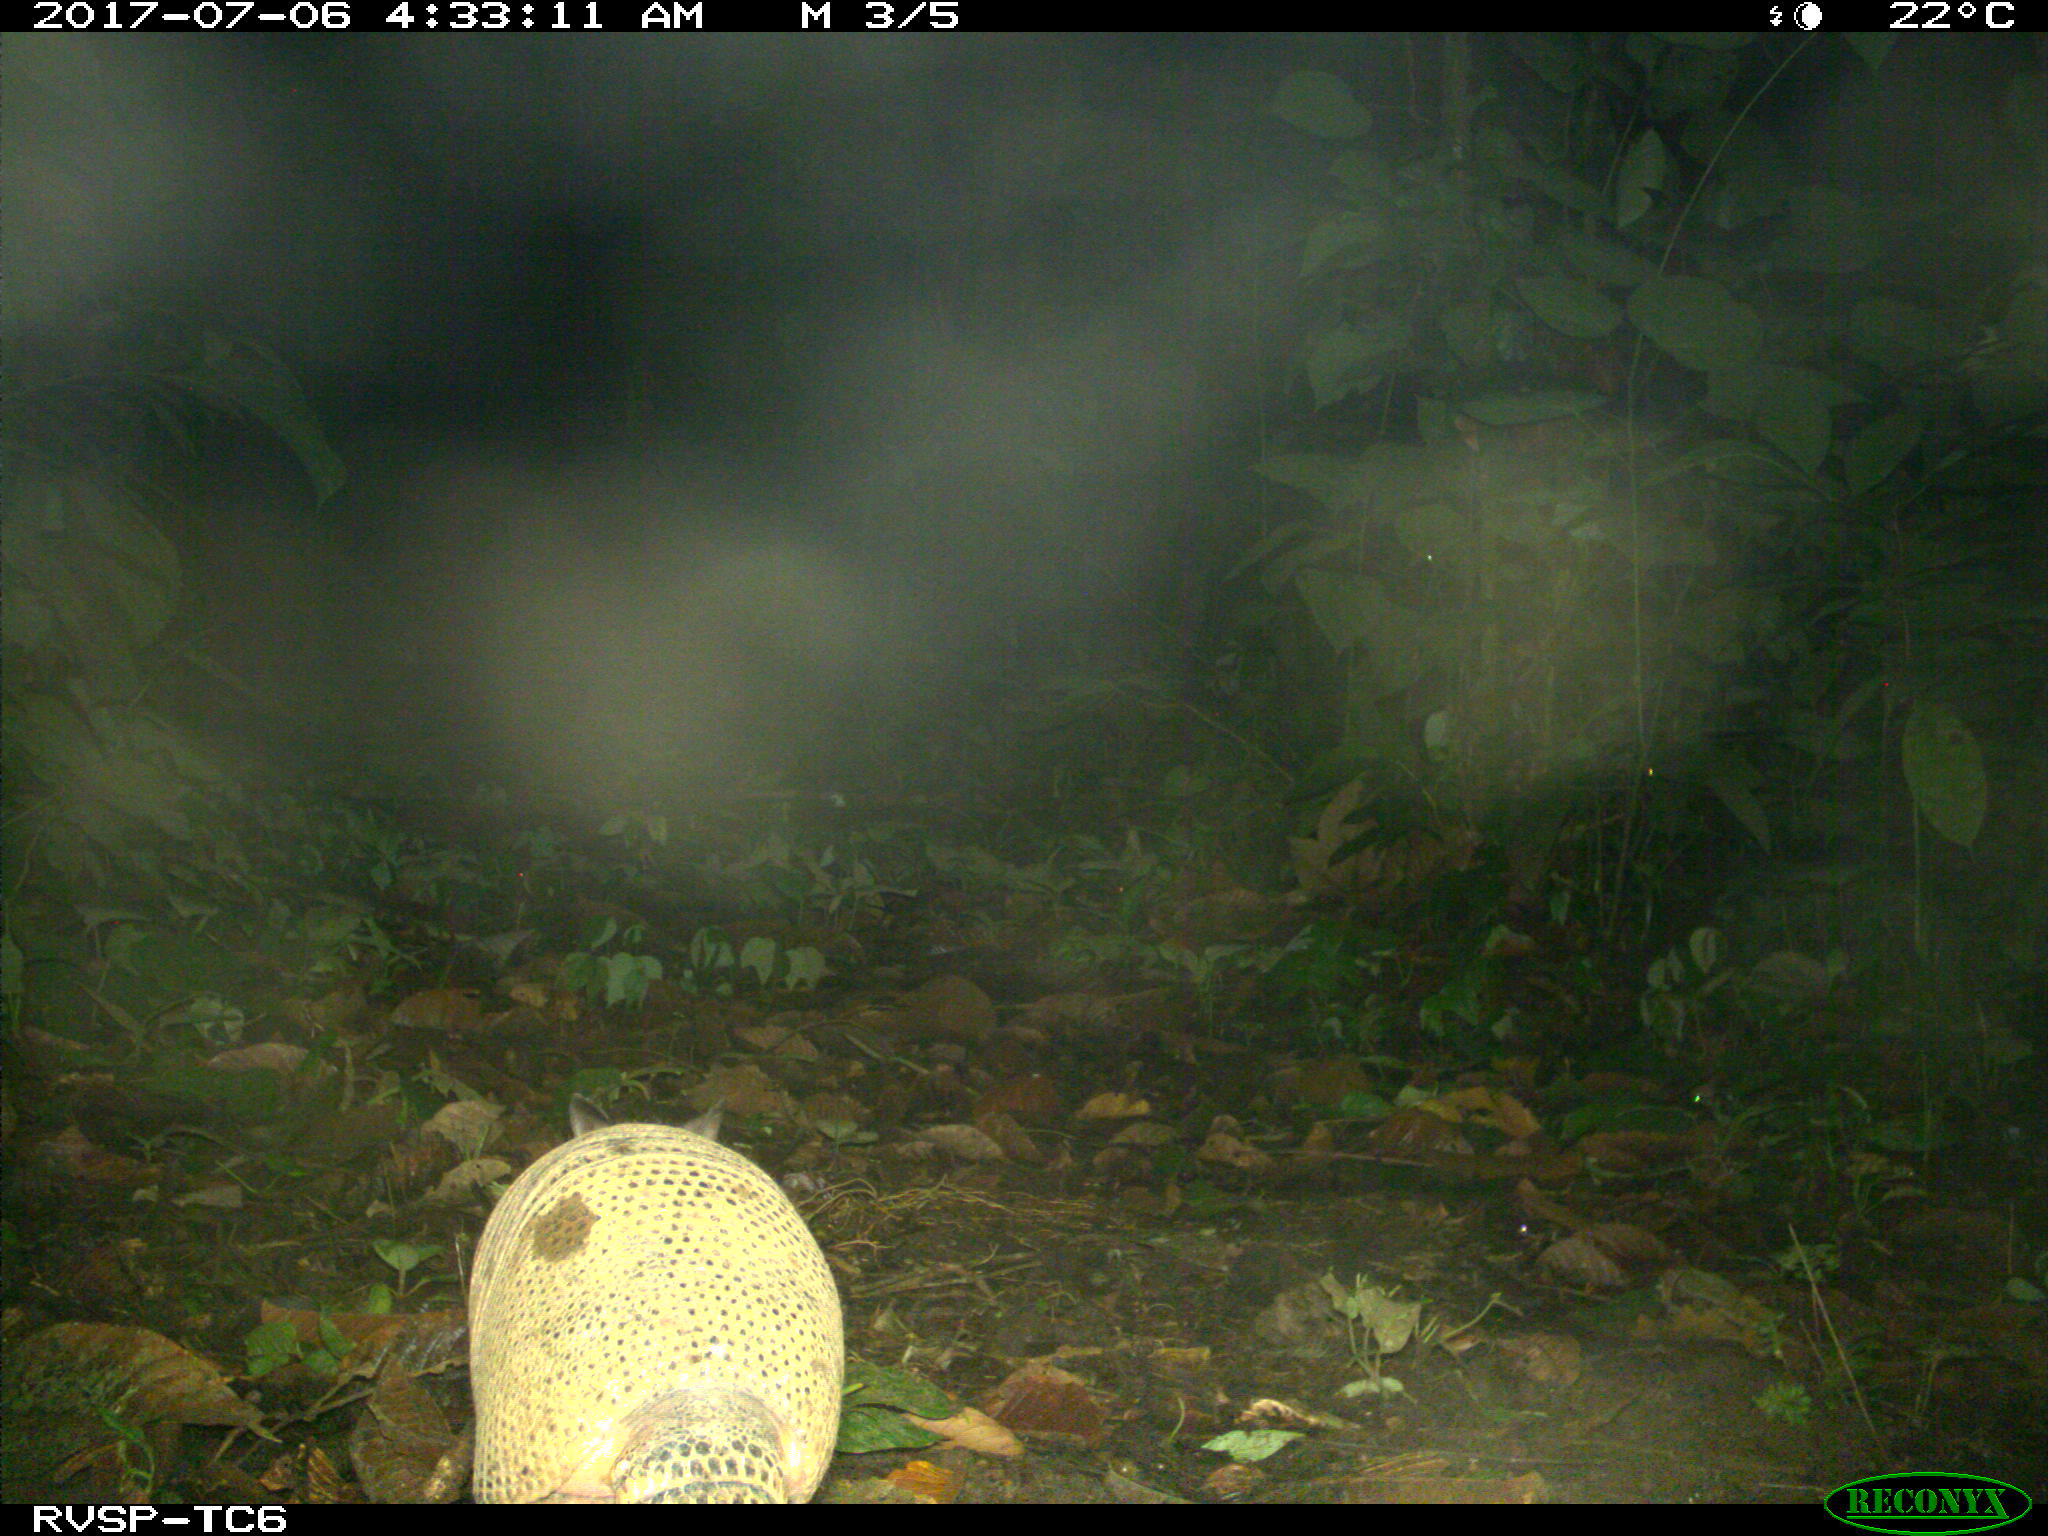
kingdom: Animalia
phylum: Chordata
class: Mammalia
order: Cingulata
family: Dasypodidae
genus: Dasypus
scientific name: Dasypus novemcinctus
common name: Nine-banded armadillo
